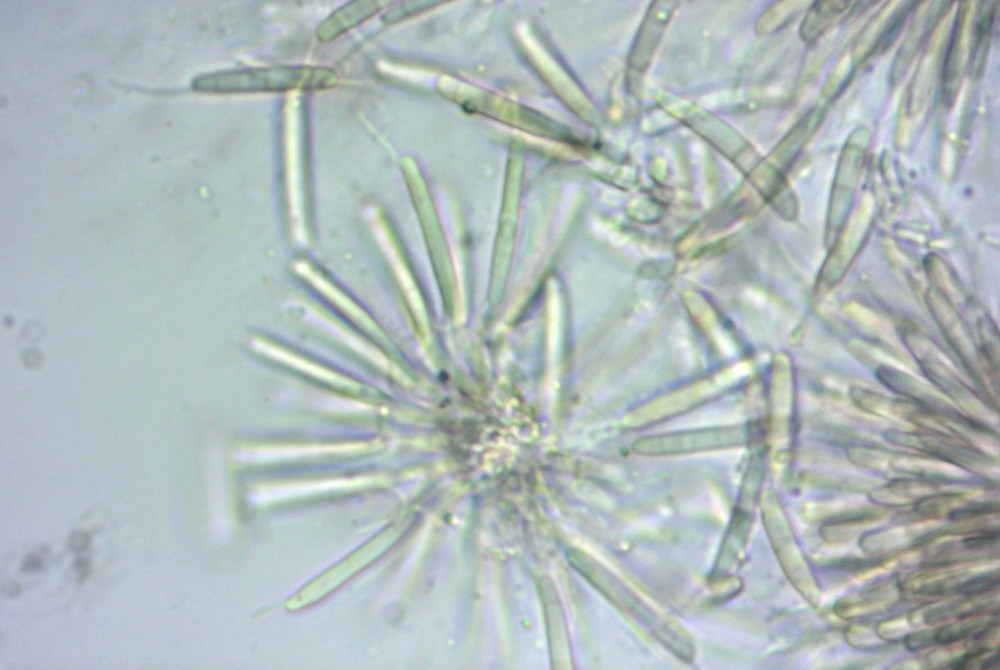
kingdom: Fungi
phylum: Ascomycota
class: Sordariomycetes
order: Amphisphaeriales
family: Discosiaceae
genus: Discosia
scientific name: Discosia artocreas
